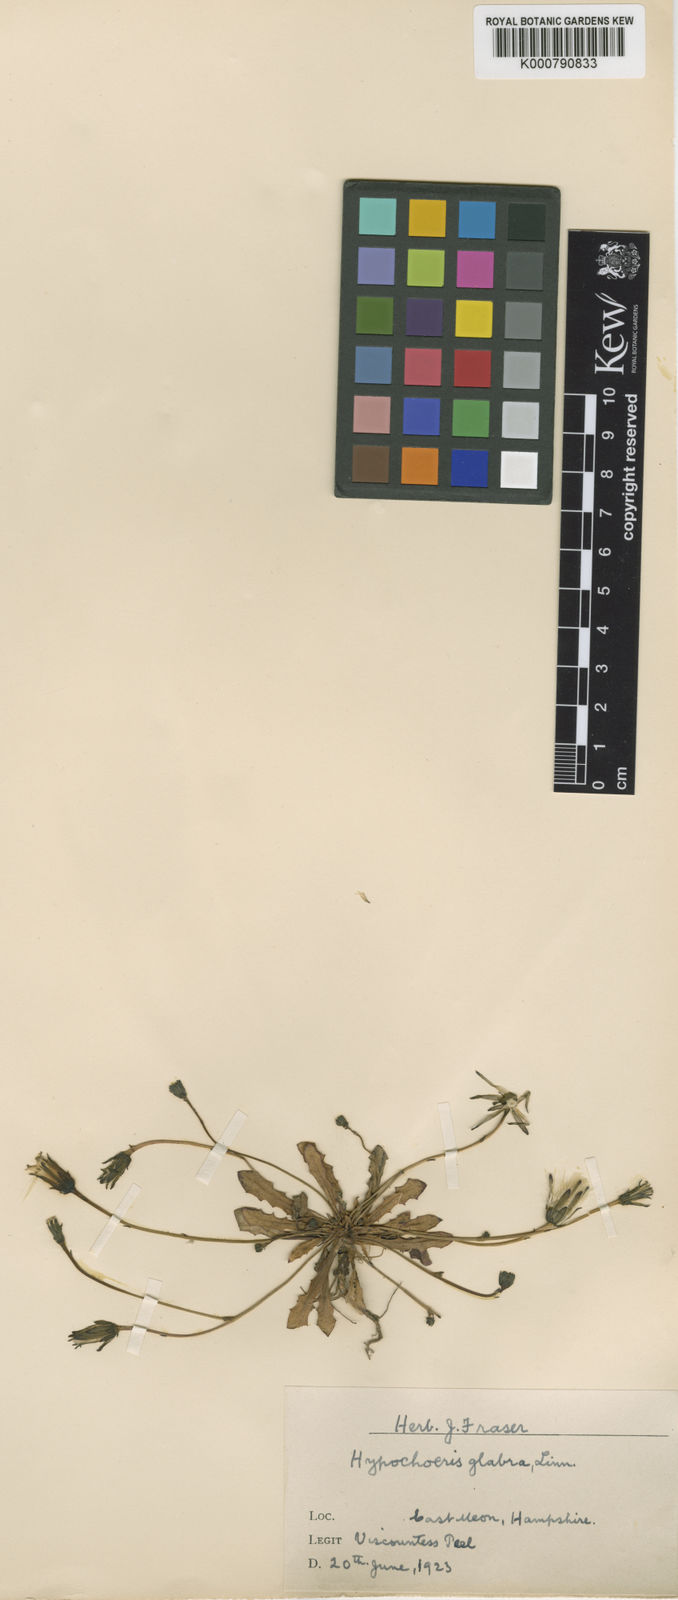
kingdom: Plantae
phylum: Tracheophyta
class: Magnoliopsida
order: Asterales
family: Asteraceae
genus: Hypochaeris
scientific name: Hypochaeris glabra
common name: Smooth catsear
